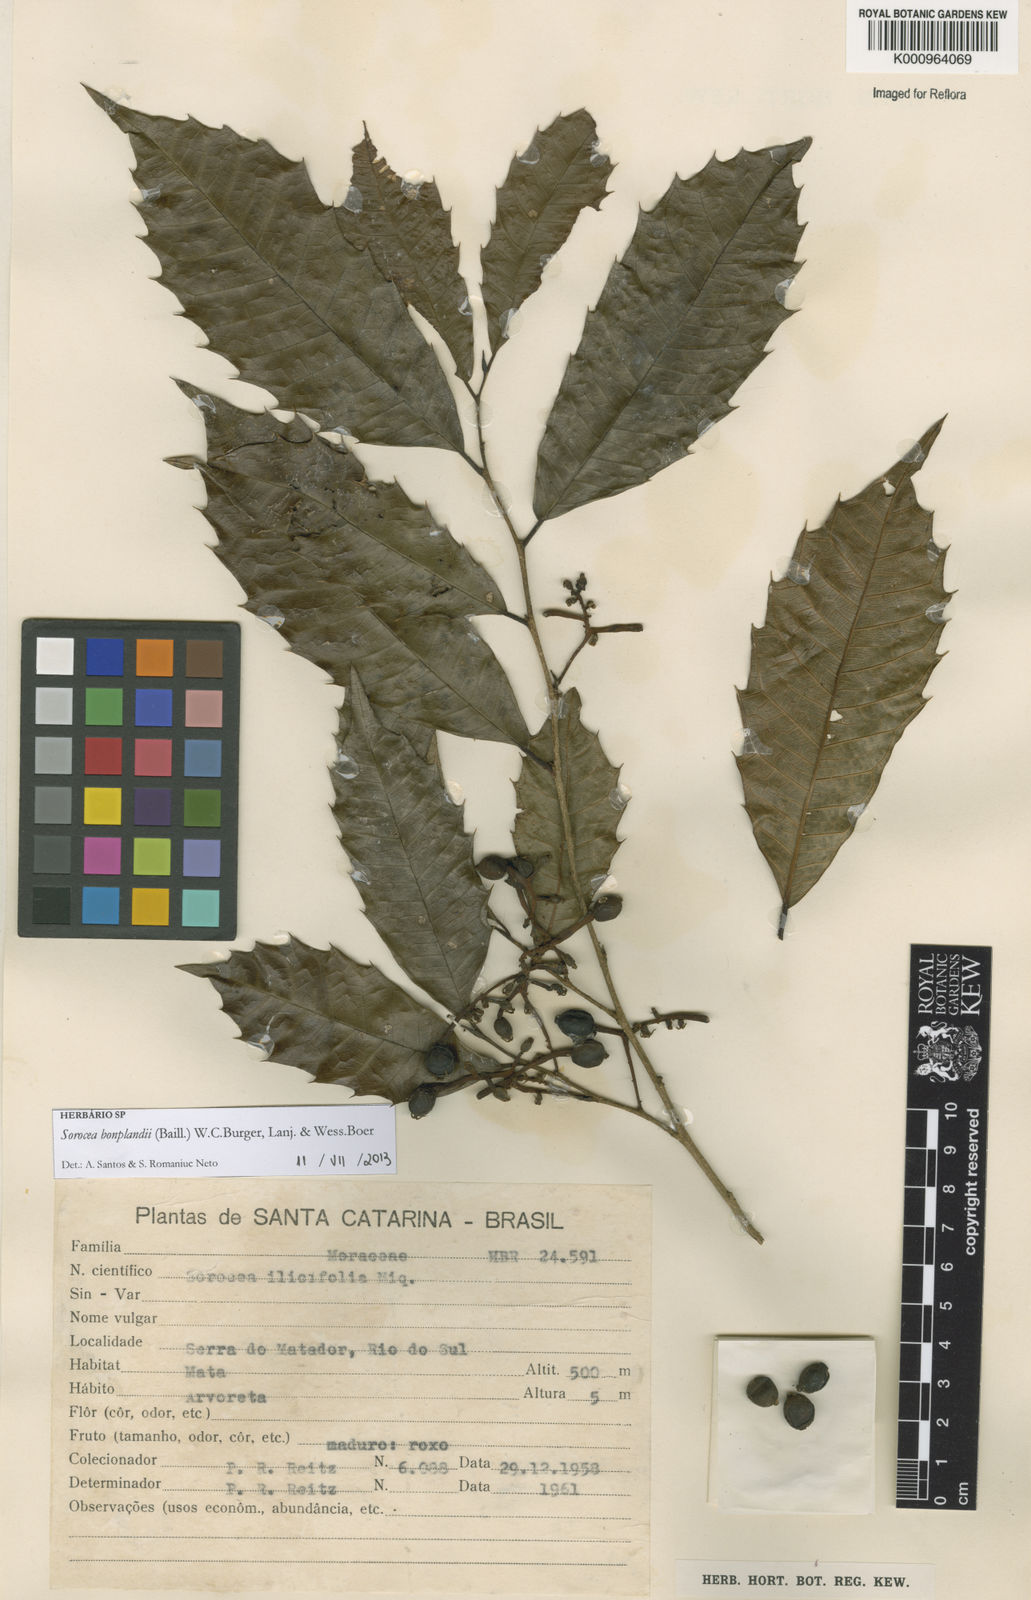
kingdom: Plantae
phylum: Tracheophyta
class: Magnoliopsida
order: Rosales
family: Moraceae
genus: Sorocea
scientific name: Sorocea
